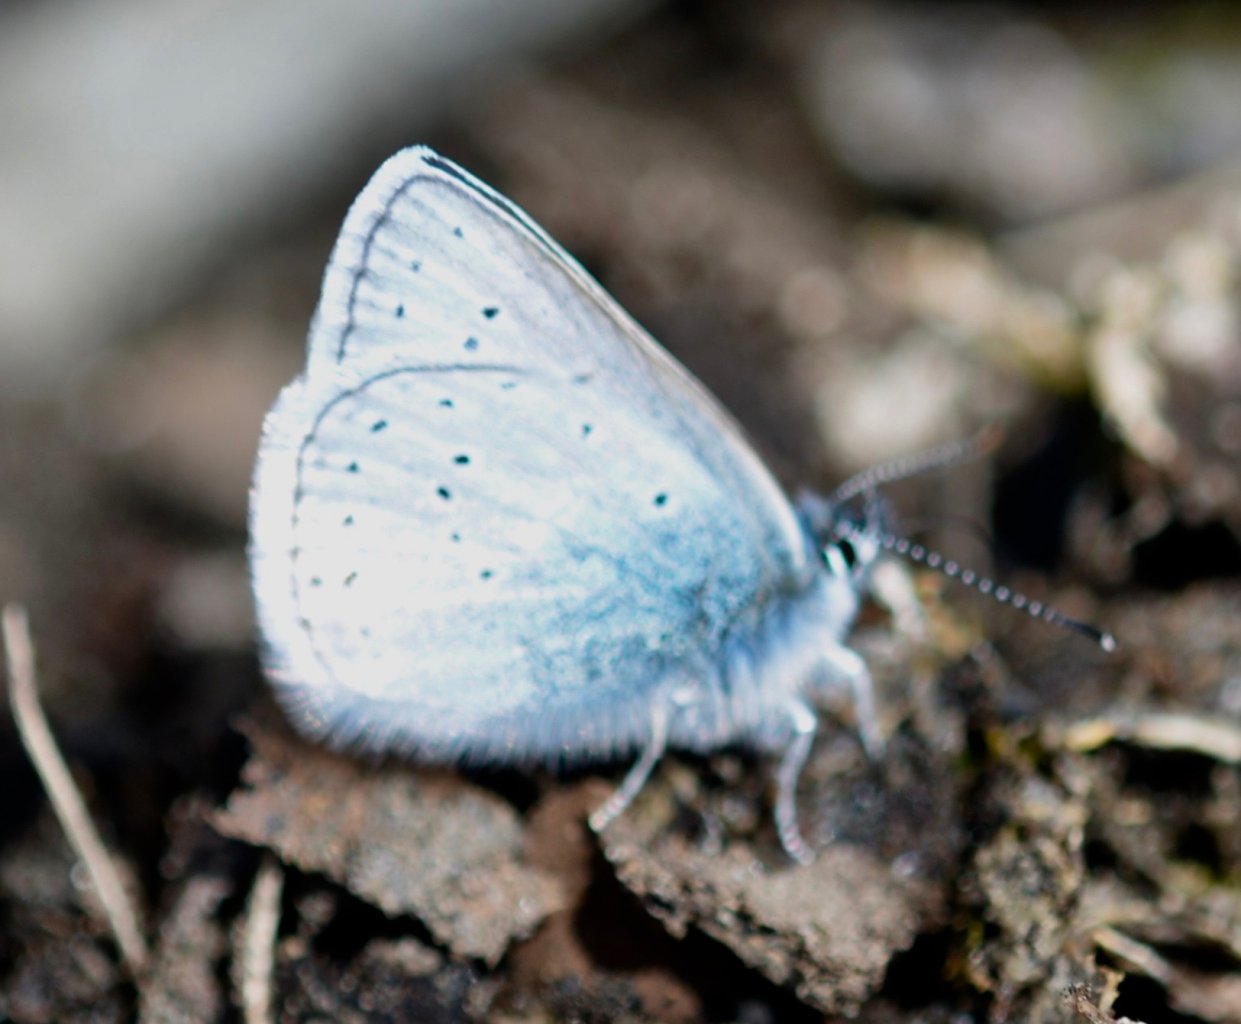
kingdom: Animalia
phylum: Arthropoda
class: Insecta
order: Lepidoptera
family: Lycaenidae
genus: Plebejus
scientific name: Plebejus saepiolus
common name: Greenish Blue
